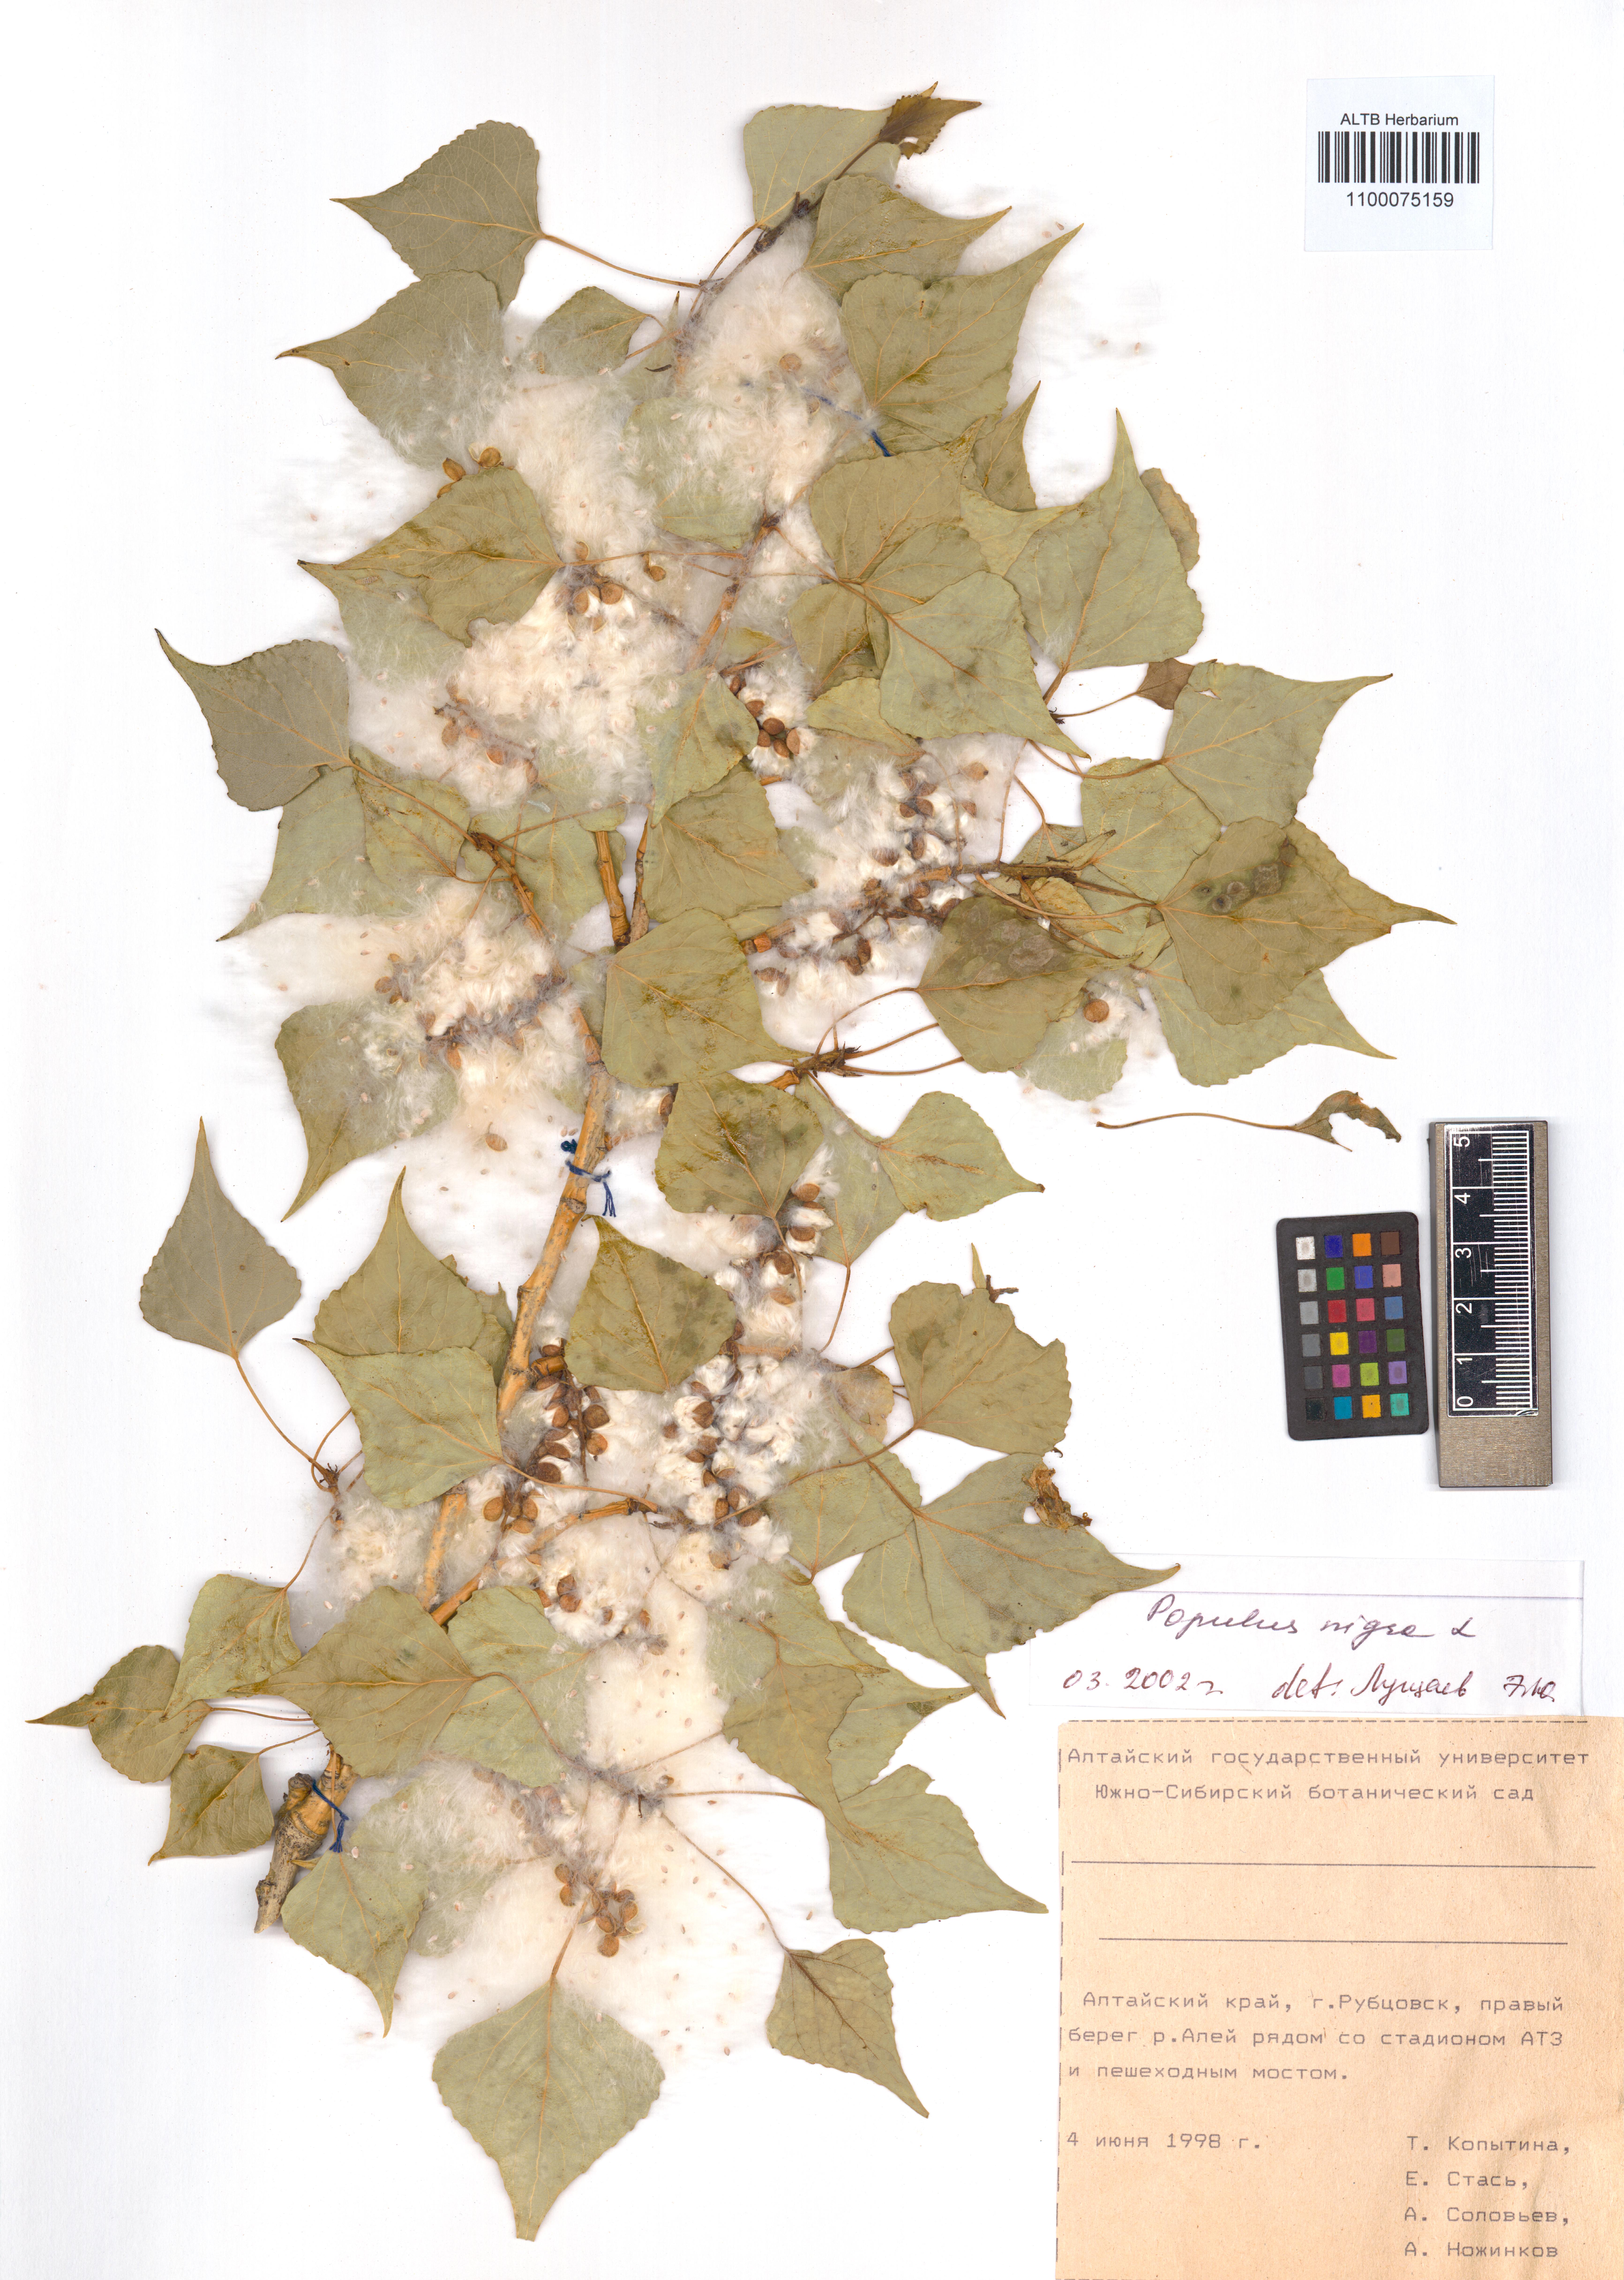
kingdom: Plantae
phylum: Tracheophyta
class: Magnoliopsida
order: Malpighiales
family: Salicaceae
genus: Populus
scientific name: Populus nigra
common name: Black poplar
